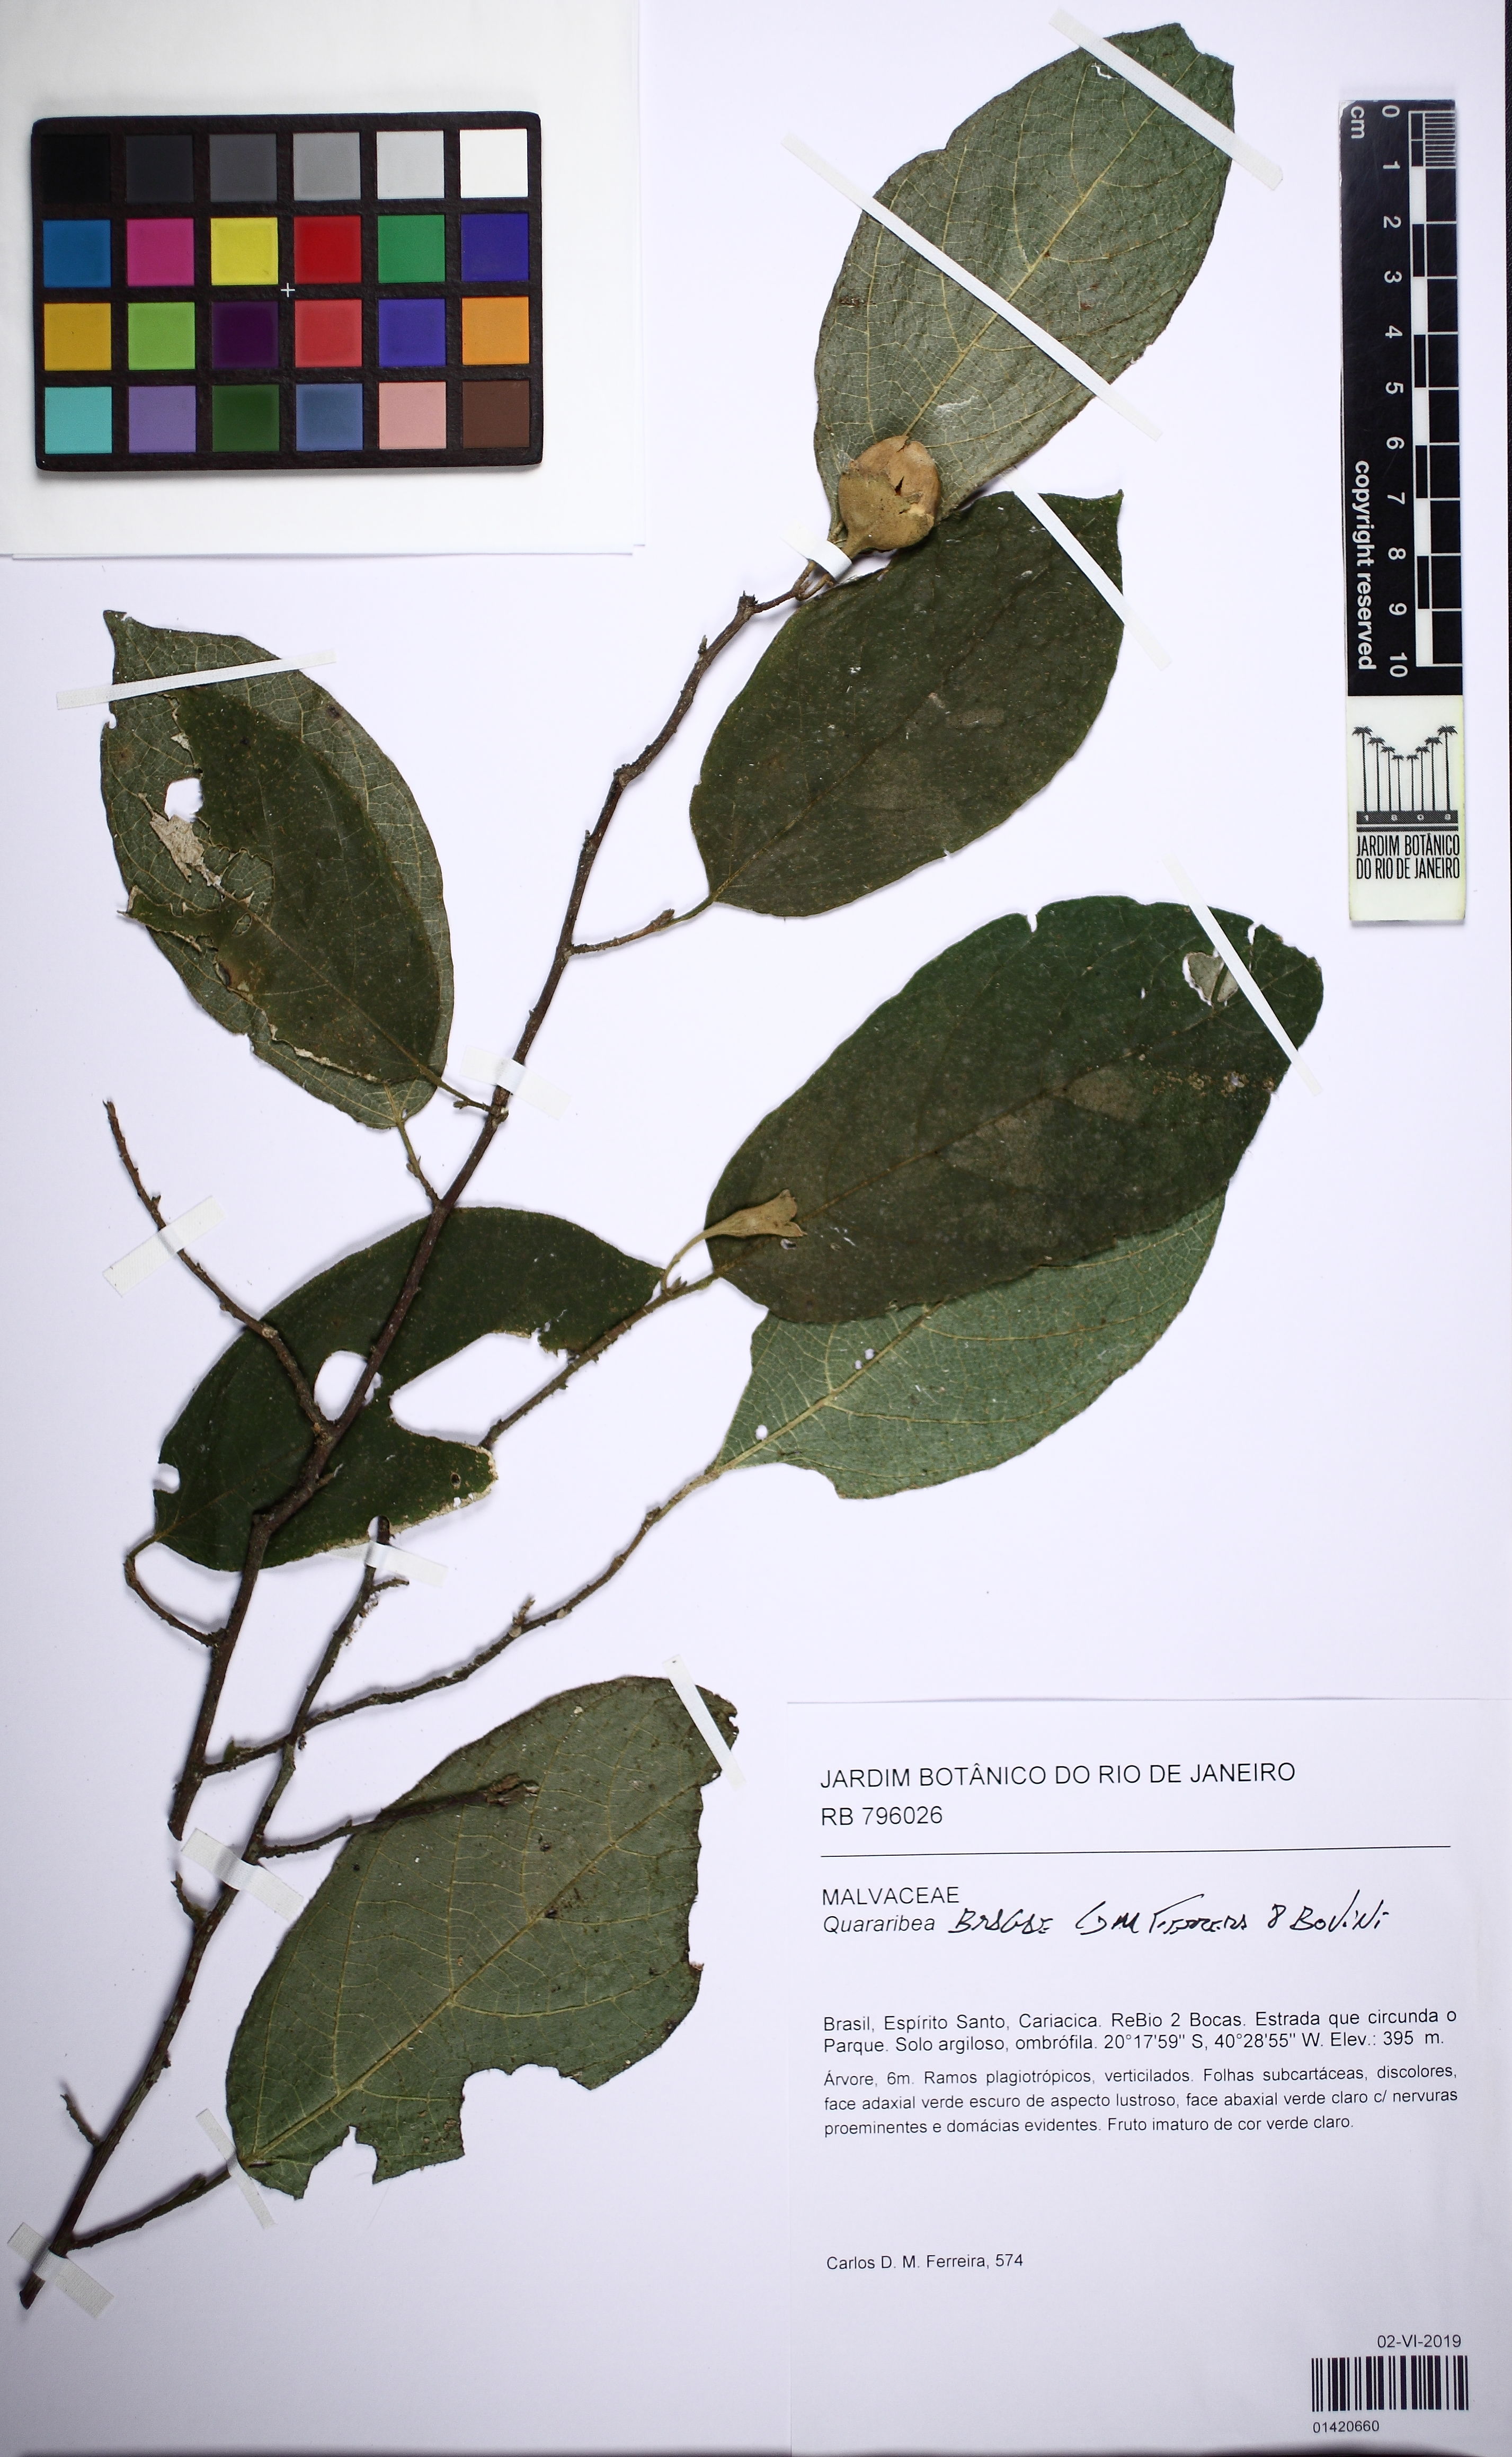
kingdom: Plantae
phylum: Tracheophyta
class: Magnoliopsida
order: Malvales
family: Malvaceae
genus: Quararibea
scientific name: Quararibea bragae
